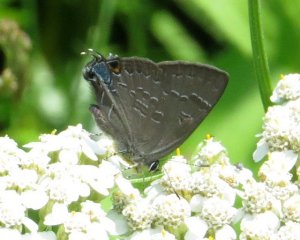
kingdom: Animalia
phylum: Arthropoda
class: Insecta
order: Lepidoptera
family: Lycaenidae
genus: Strymon
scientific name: Strymon caryaevorus
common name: Hickory Hairstreak
